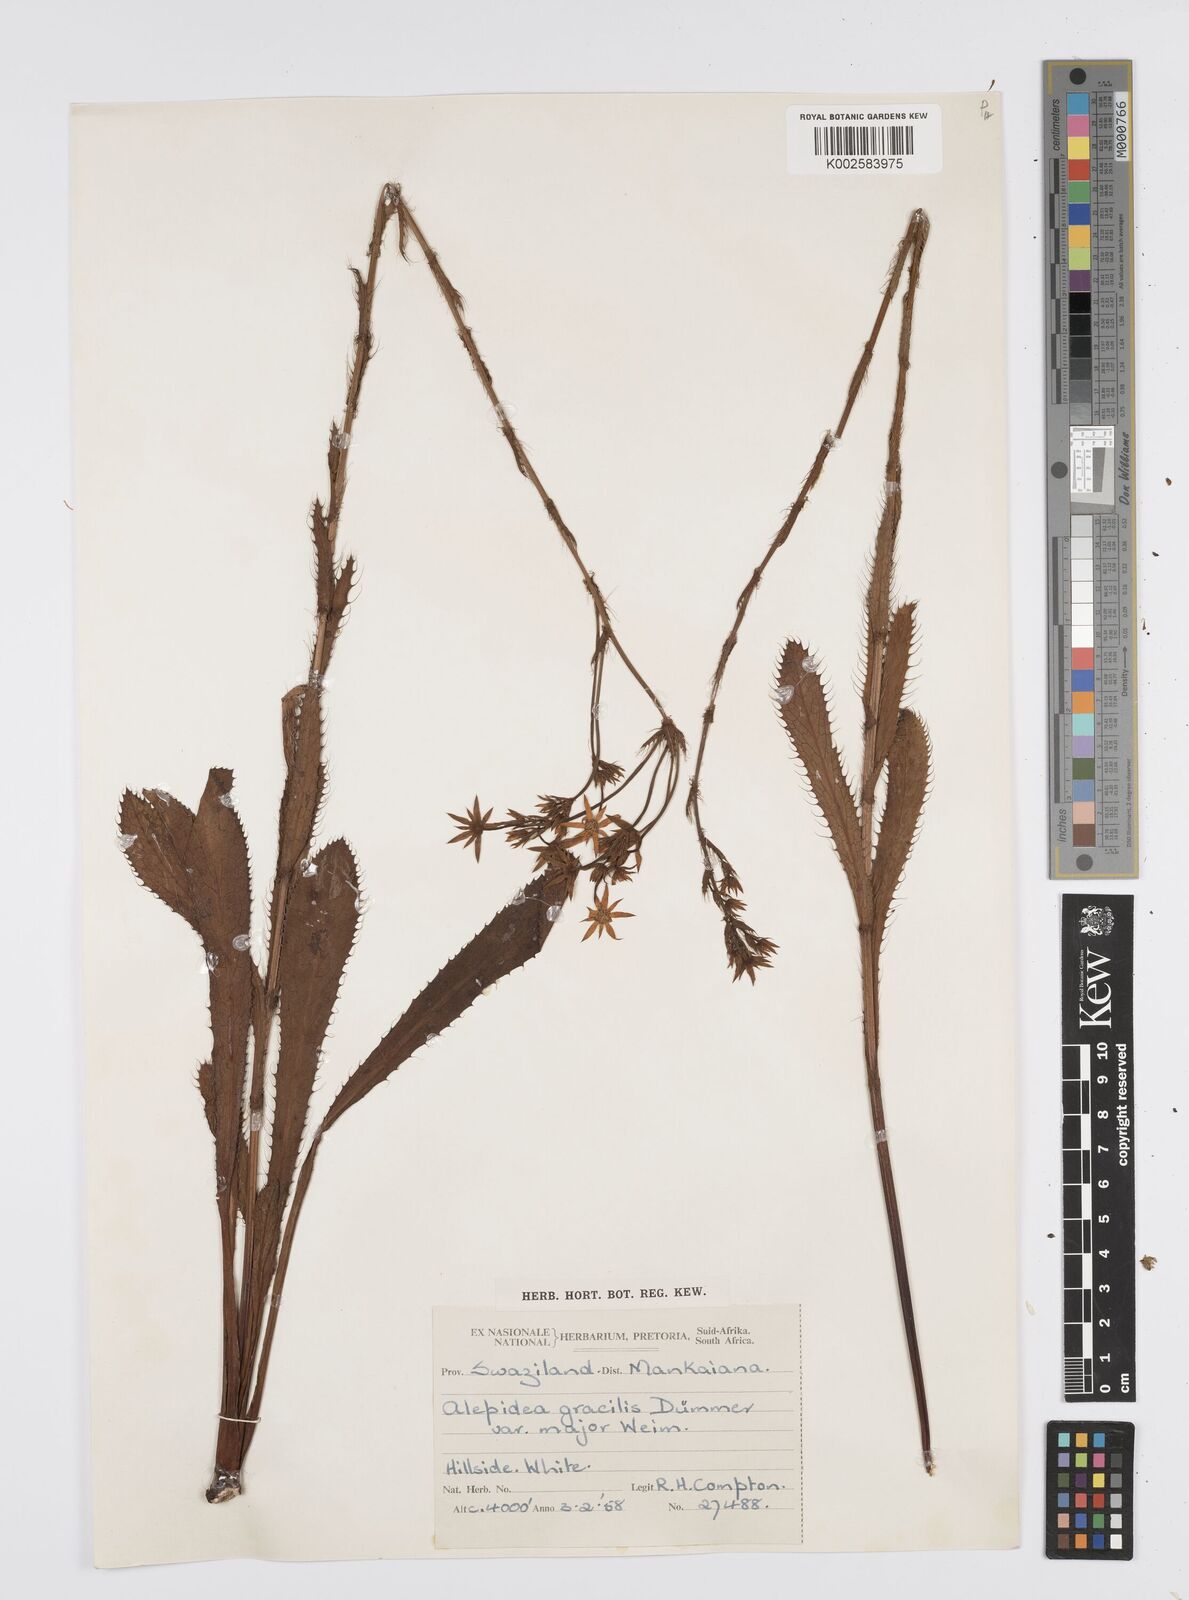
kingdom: Plantae
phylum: Tracheophyta
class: Magnoliopsida
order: Apiales
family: Apiaceae
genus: Alepidea
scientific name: Alepidea
